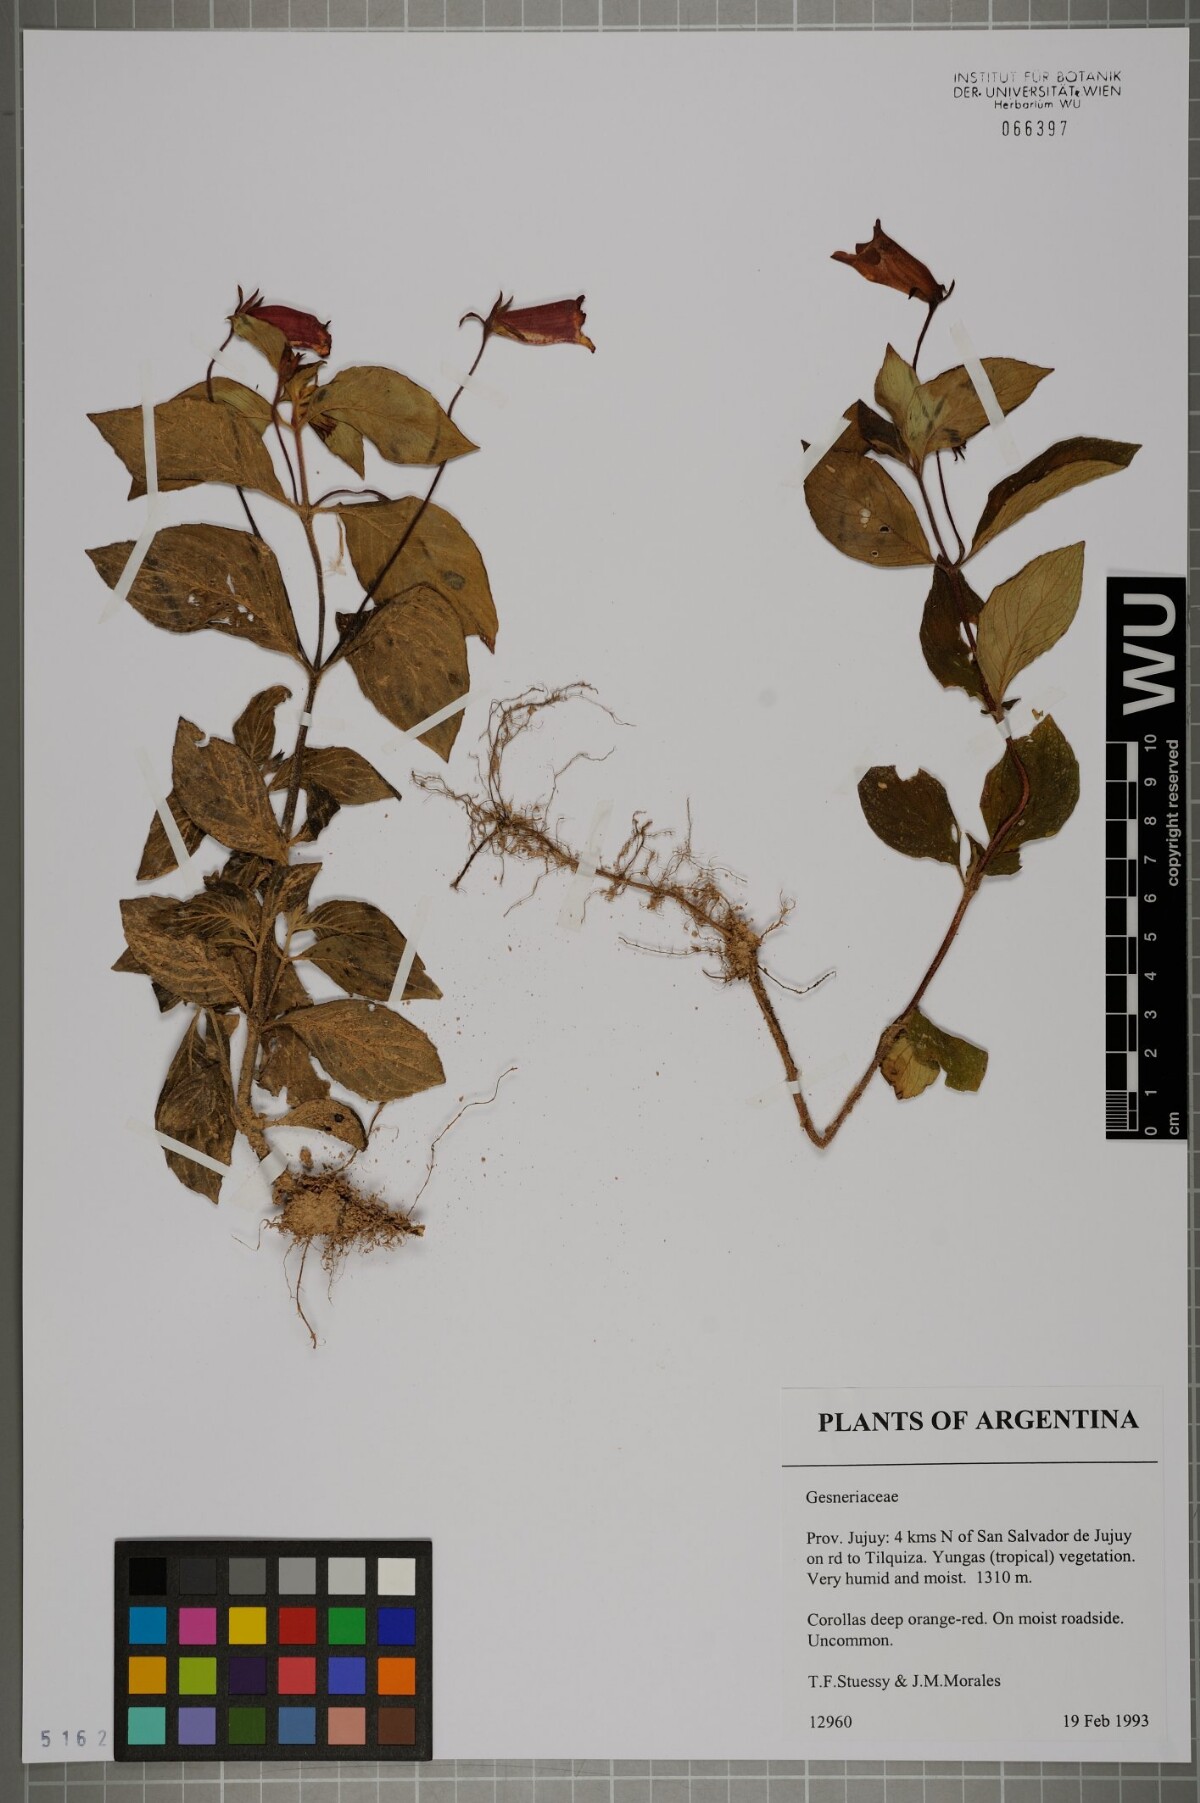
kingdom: Plantae
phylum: Tracheophyta
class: Magnoliopsida
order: Lamiales
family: Gesneriaceae
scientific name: Gesneriaceae
